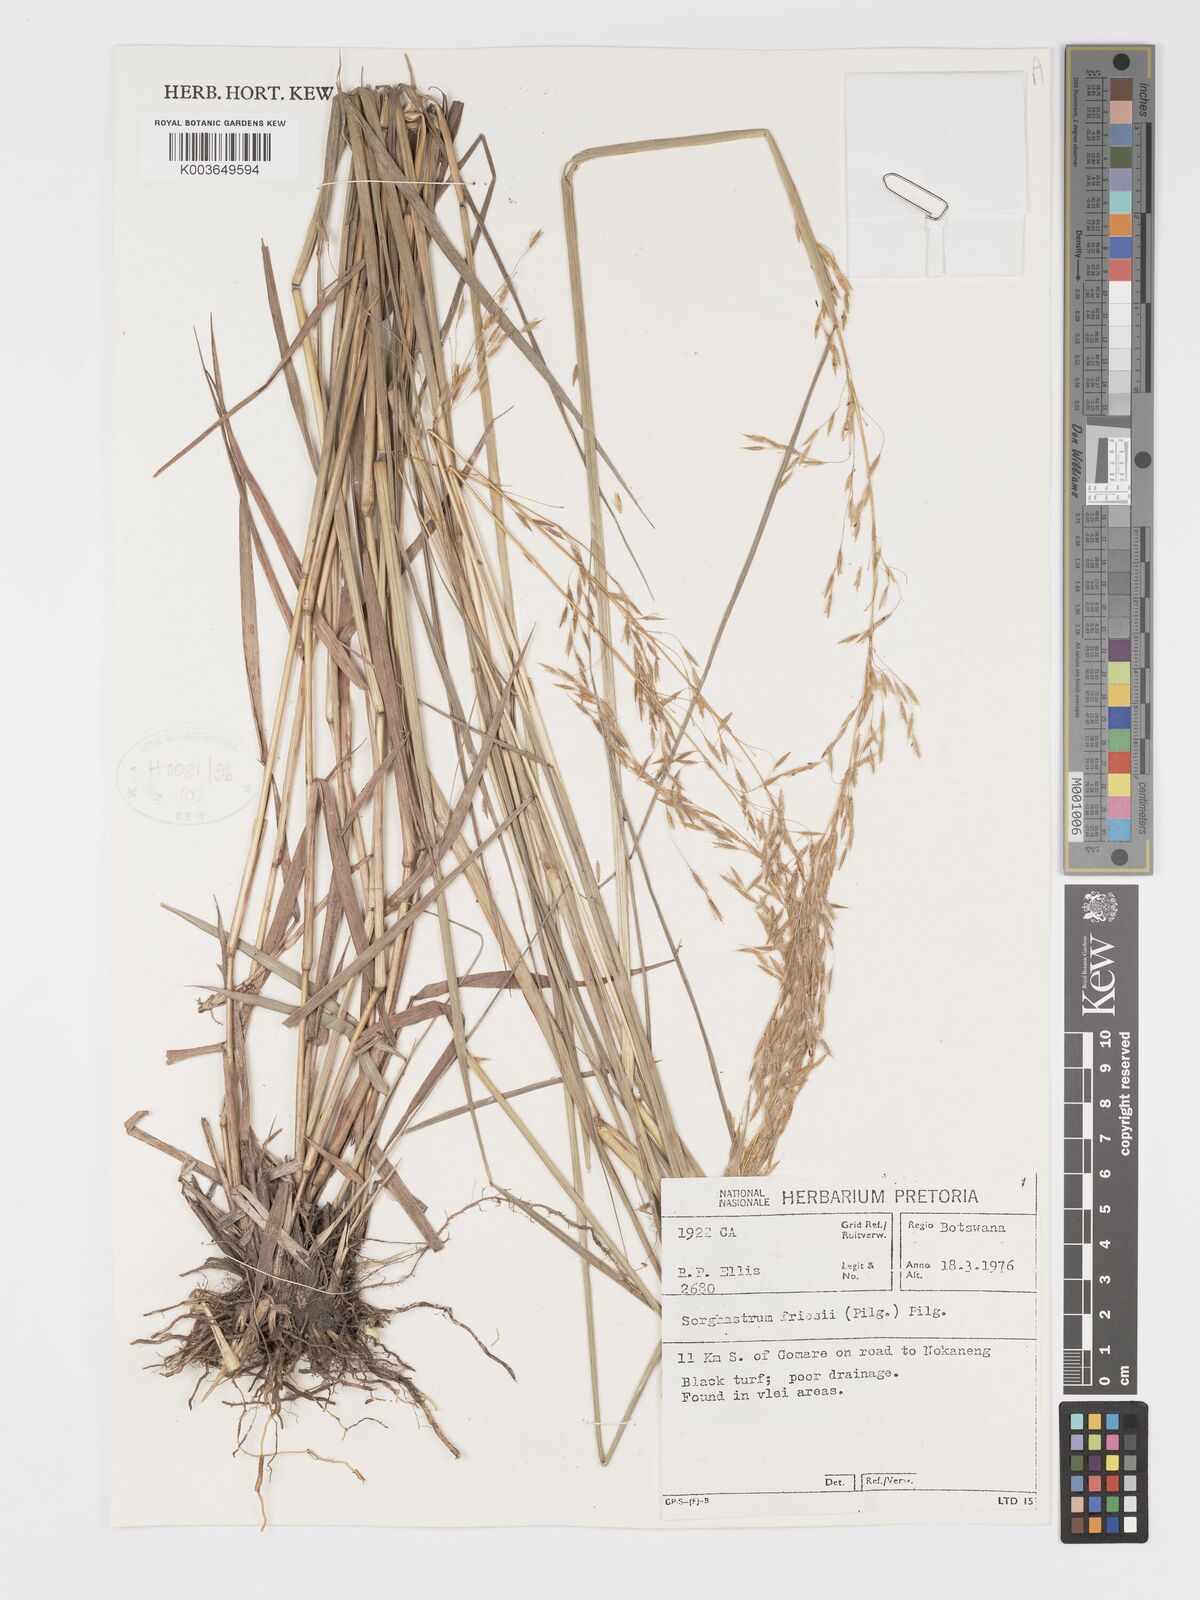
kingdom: Plantae
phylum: Tracheophyta
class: Liliopsida
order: Poales
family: Poaceae
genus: Sorghastrum
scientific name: Sorghastrum nudipes
